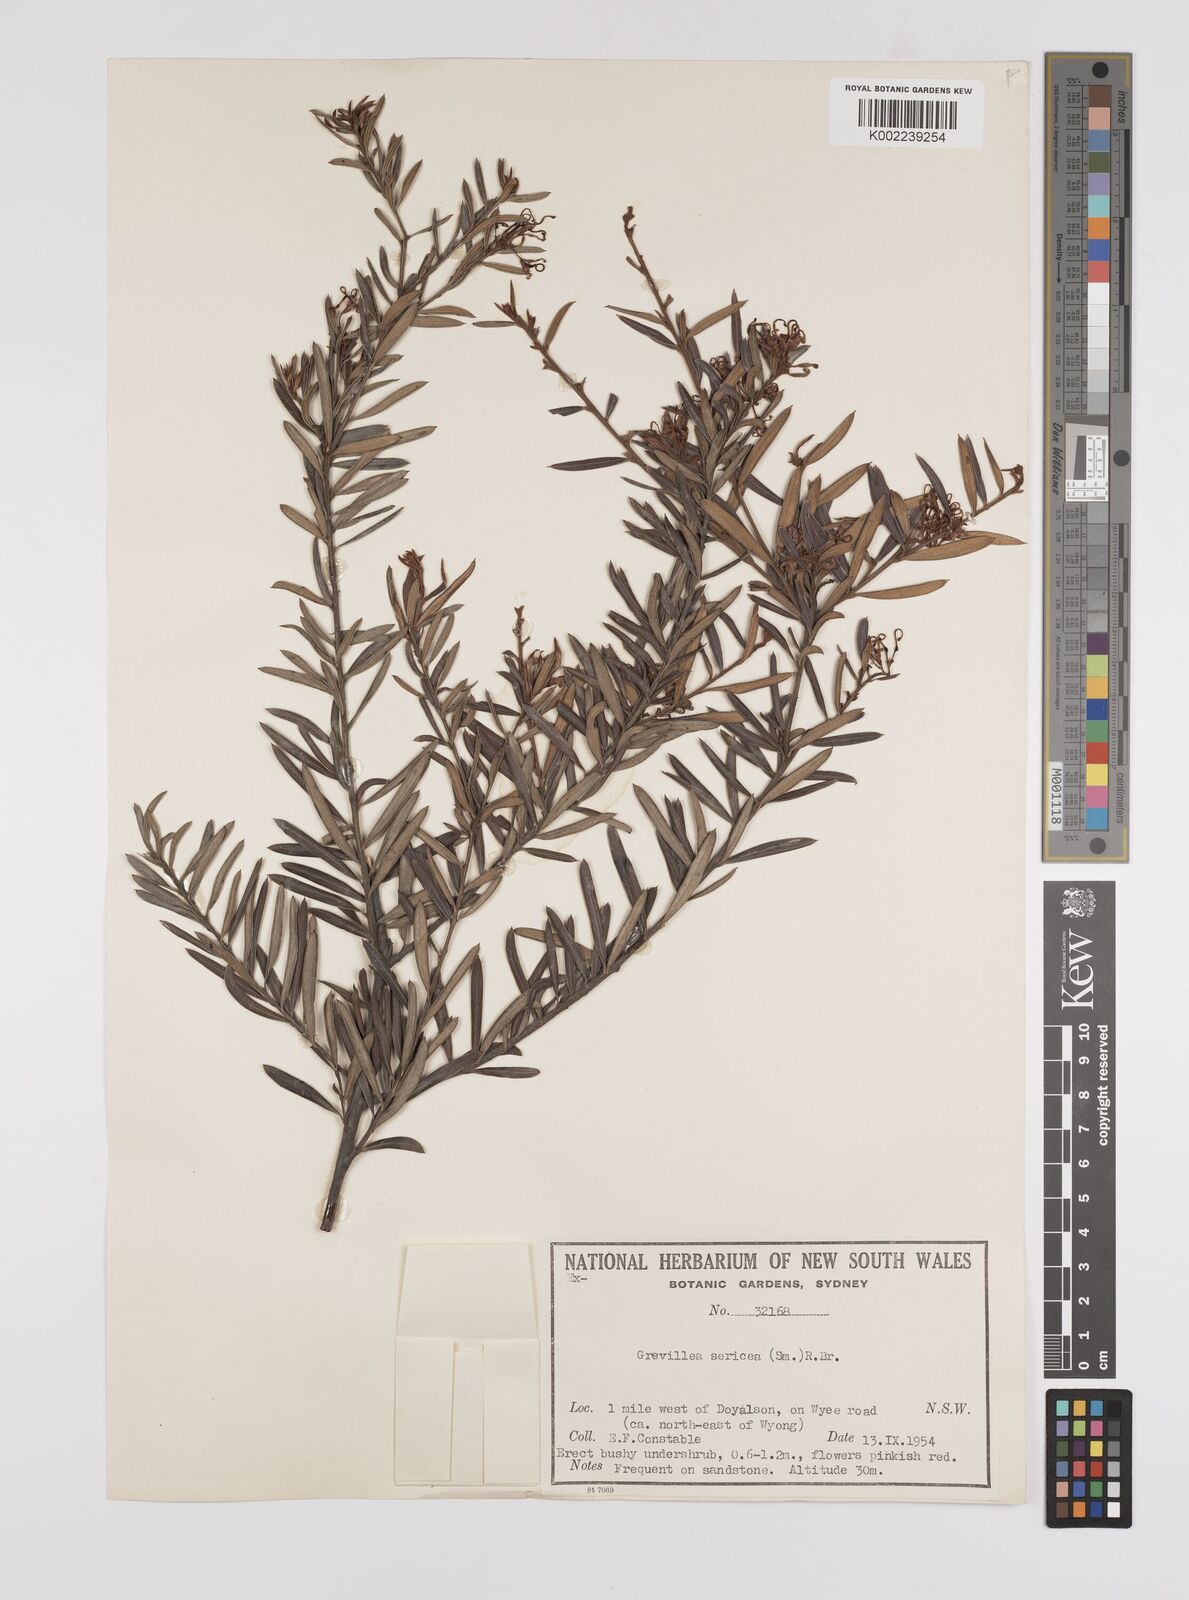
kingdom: Plantae
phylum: Tracheophyta
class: Magnoliopsida
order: Proteales
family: Proteaceae
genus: Grevillea
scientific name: Grevillea sericea
